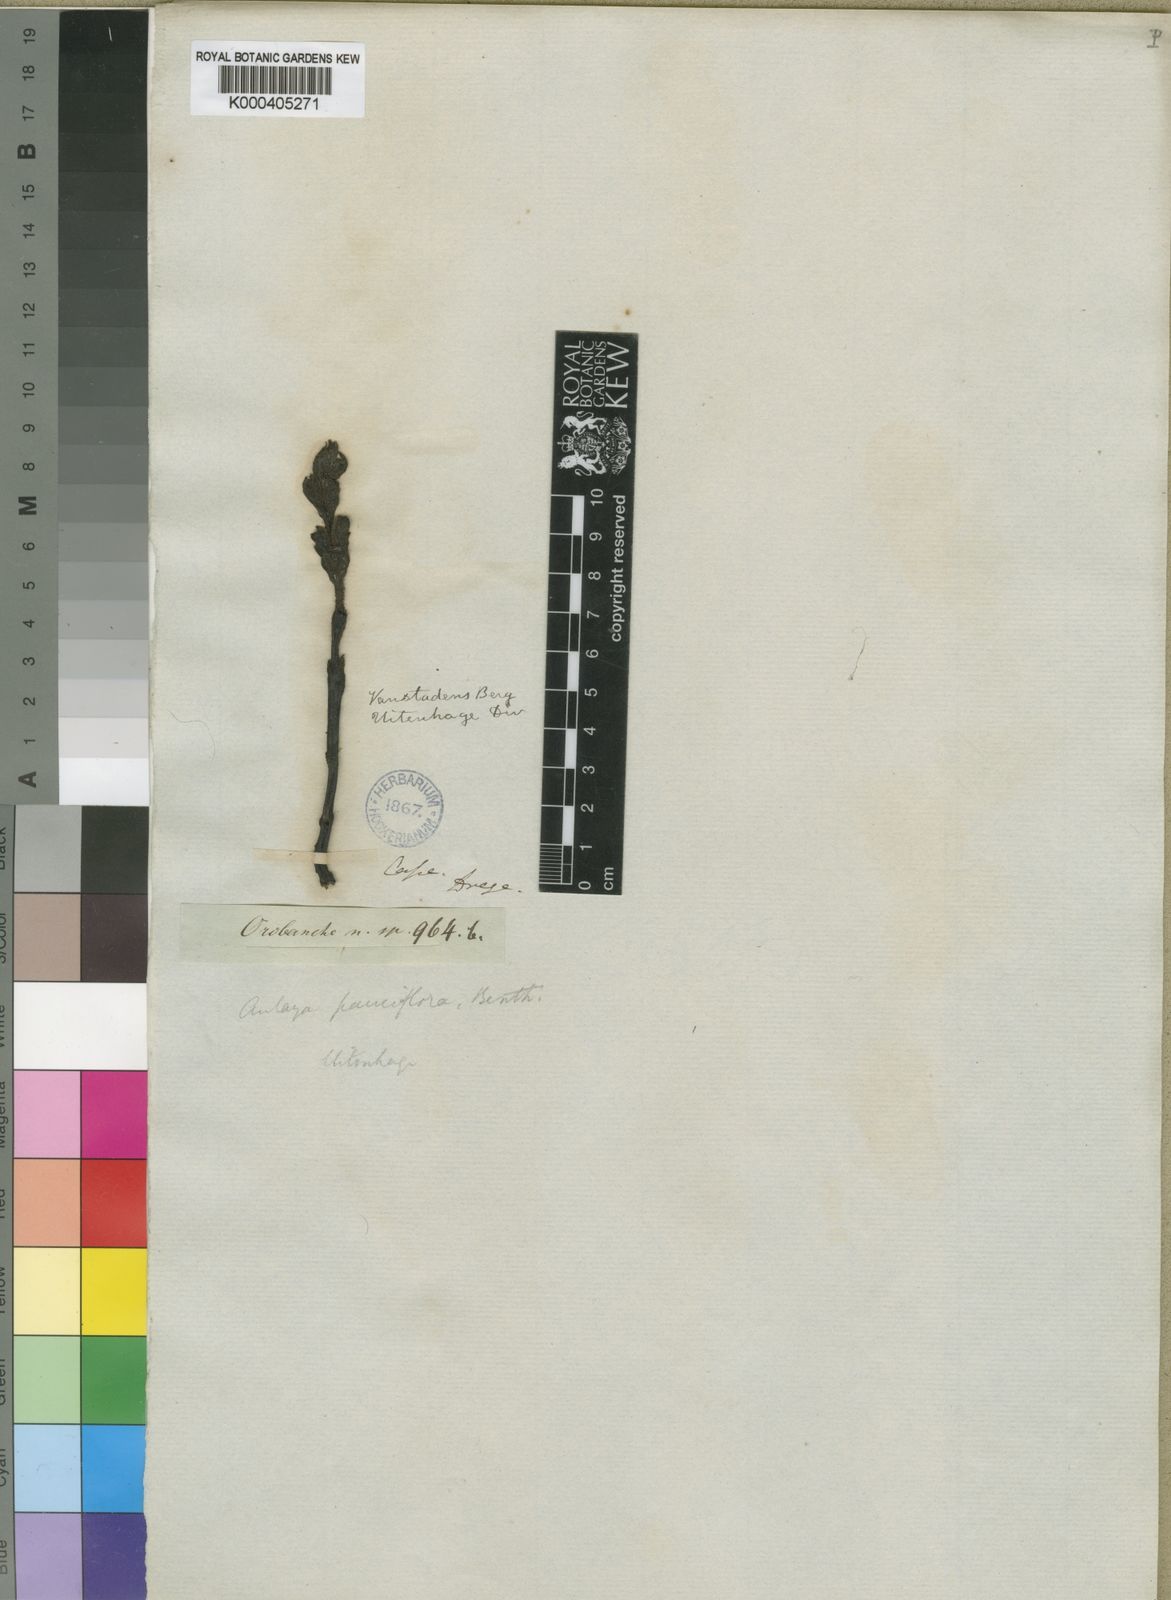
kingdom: Plantae
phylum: Tracheophyta
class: Magnoliopsida
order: Lamiales
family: Orobanchaceae
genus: Harveya
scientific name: Harveya pauciflora
